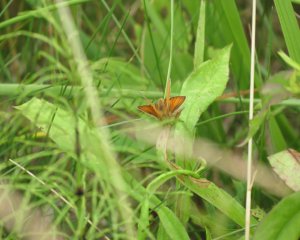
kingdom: Animalia
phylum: Arthropoda
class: Insecta
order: Lepidoptera
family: Hesperiidae
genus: Thymelicus
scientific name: Thymelicus lineola
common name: European Skipper
